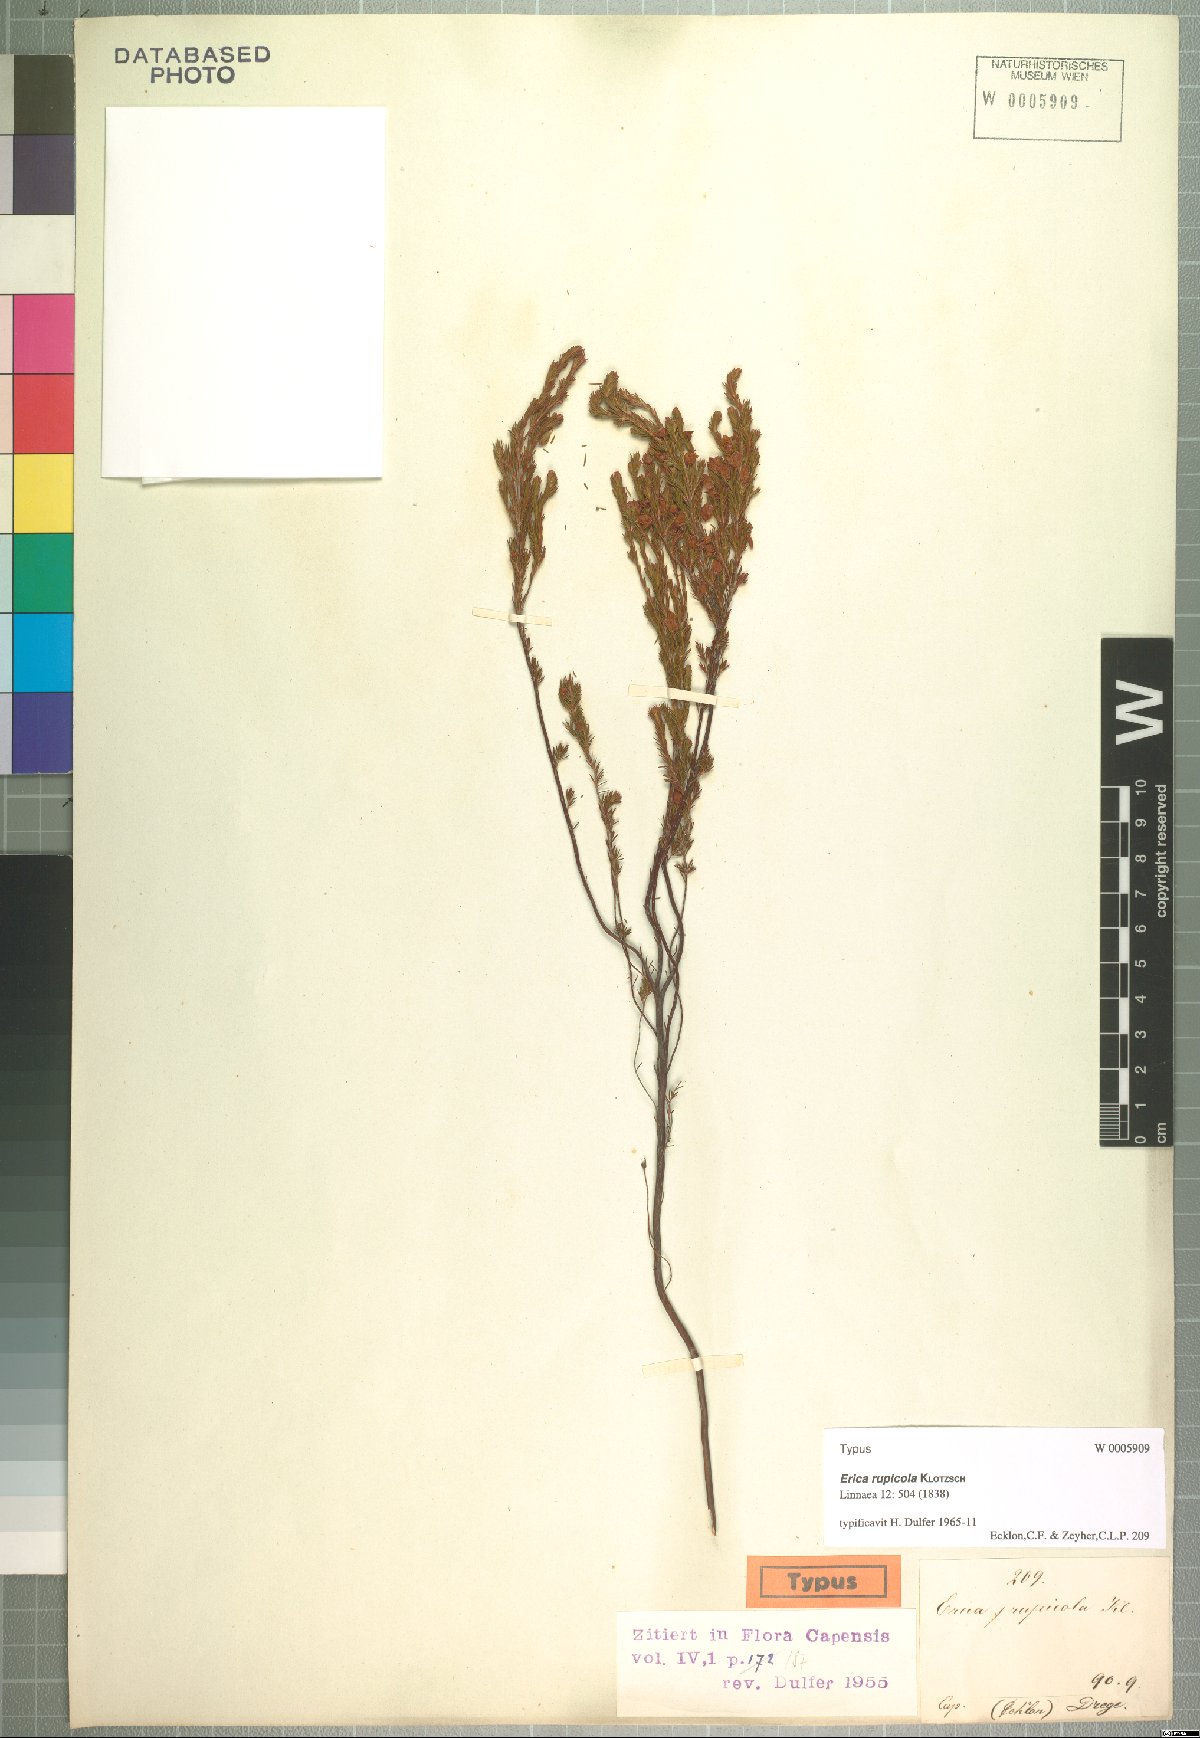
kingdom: Plantae
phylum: Tracheophyta
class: Magnoliopsida
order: Ericales
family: Ericaceae
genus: Erica
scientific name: Erica rupicola
